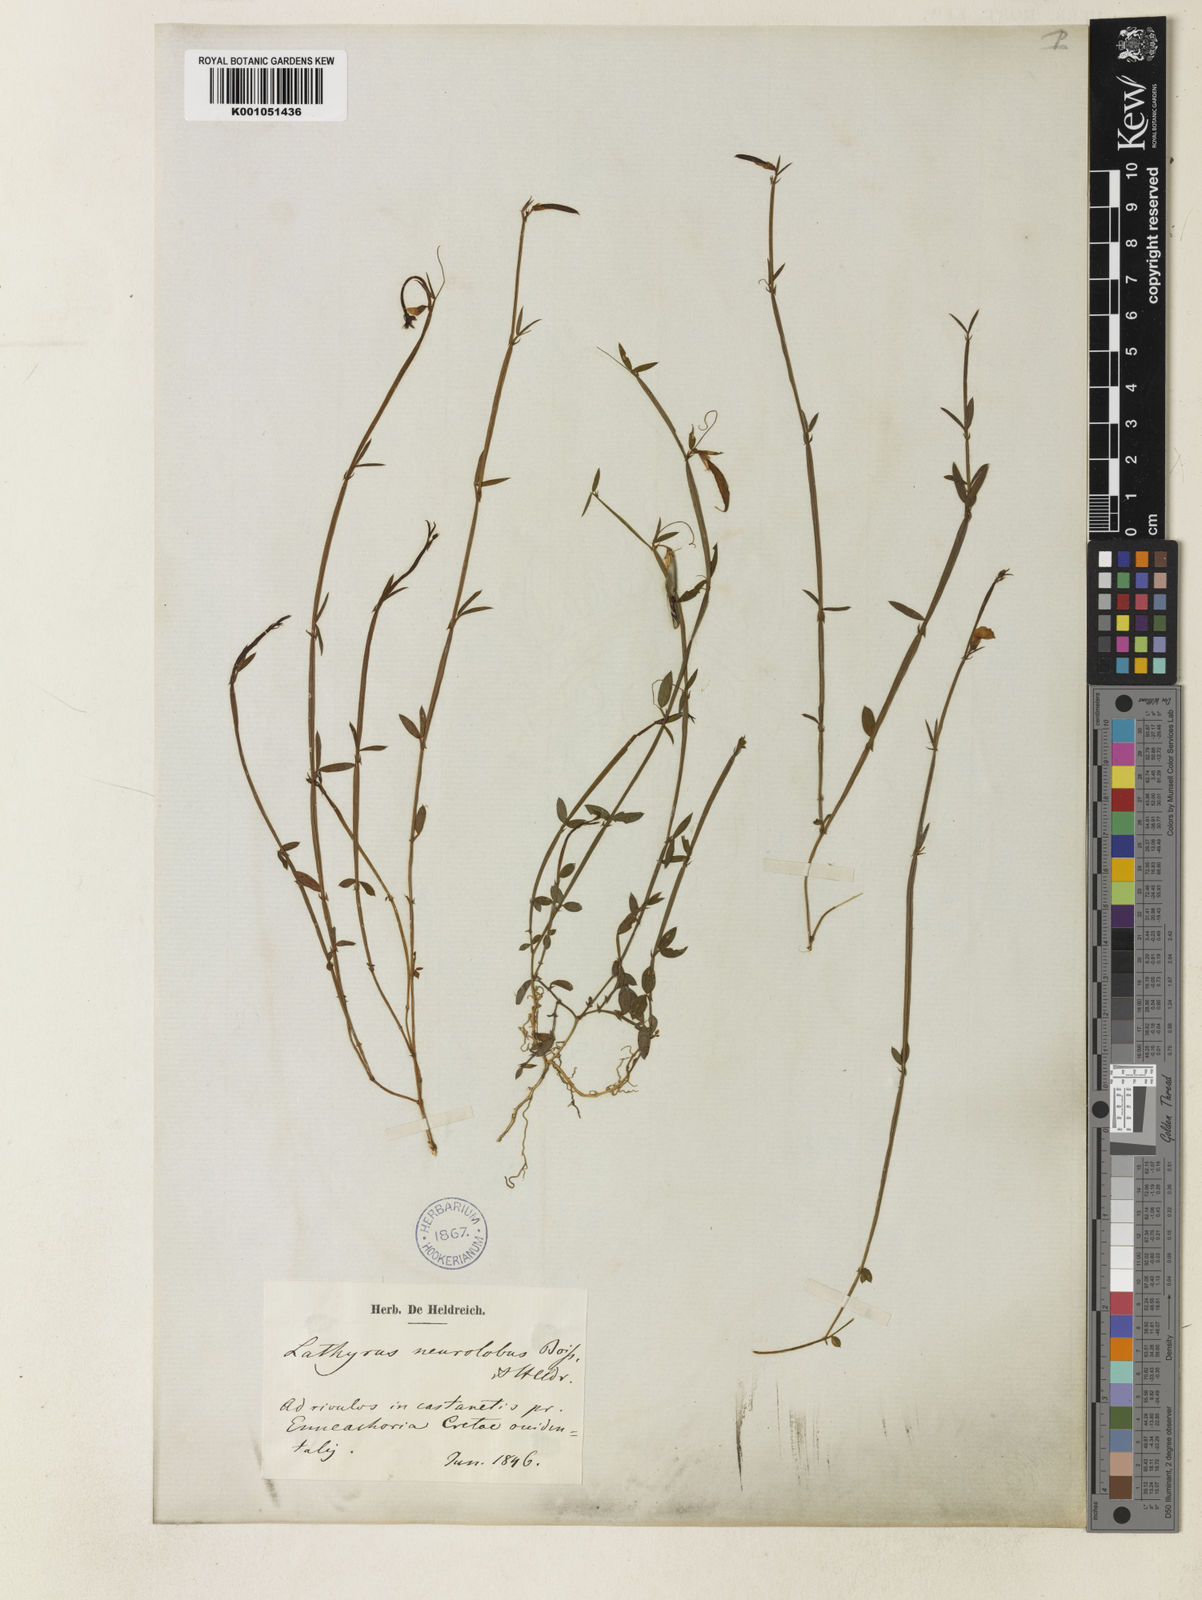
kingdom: Plantae
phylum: Tracheophyta
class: Magnoliopsida
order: Fabales
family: Fabaceae
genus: Lathyrus
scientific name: Lathyrus neurolobus
